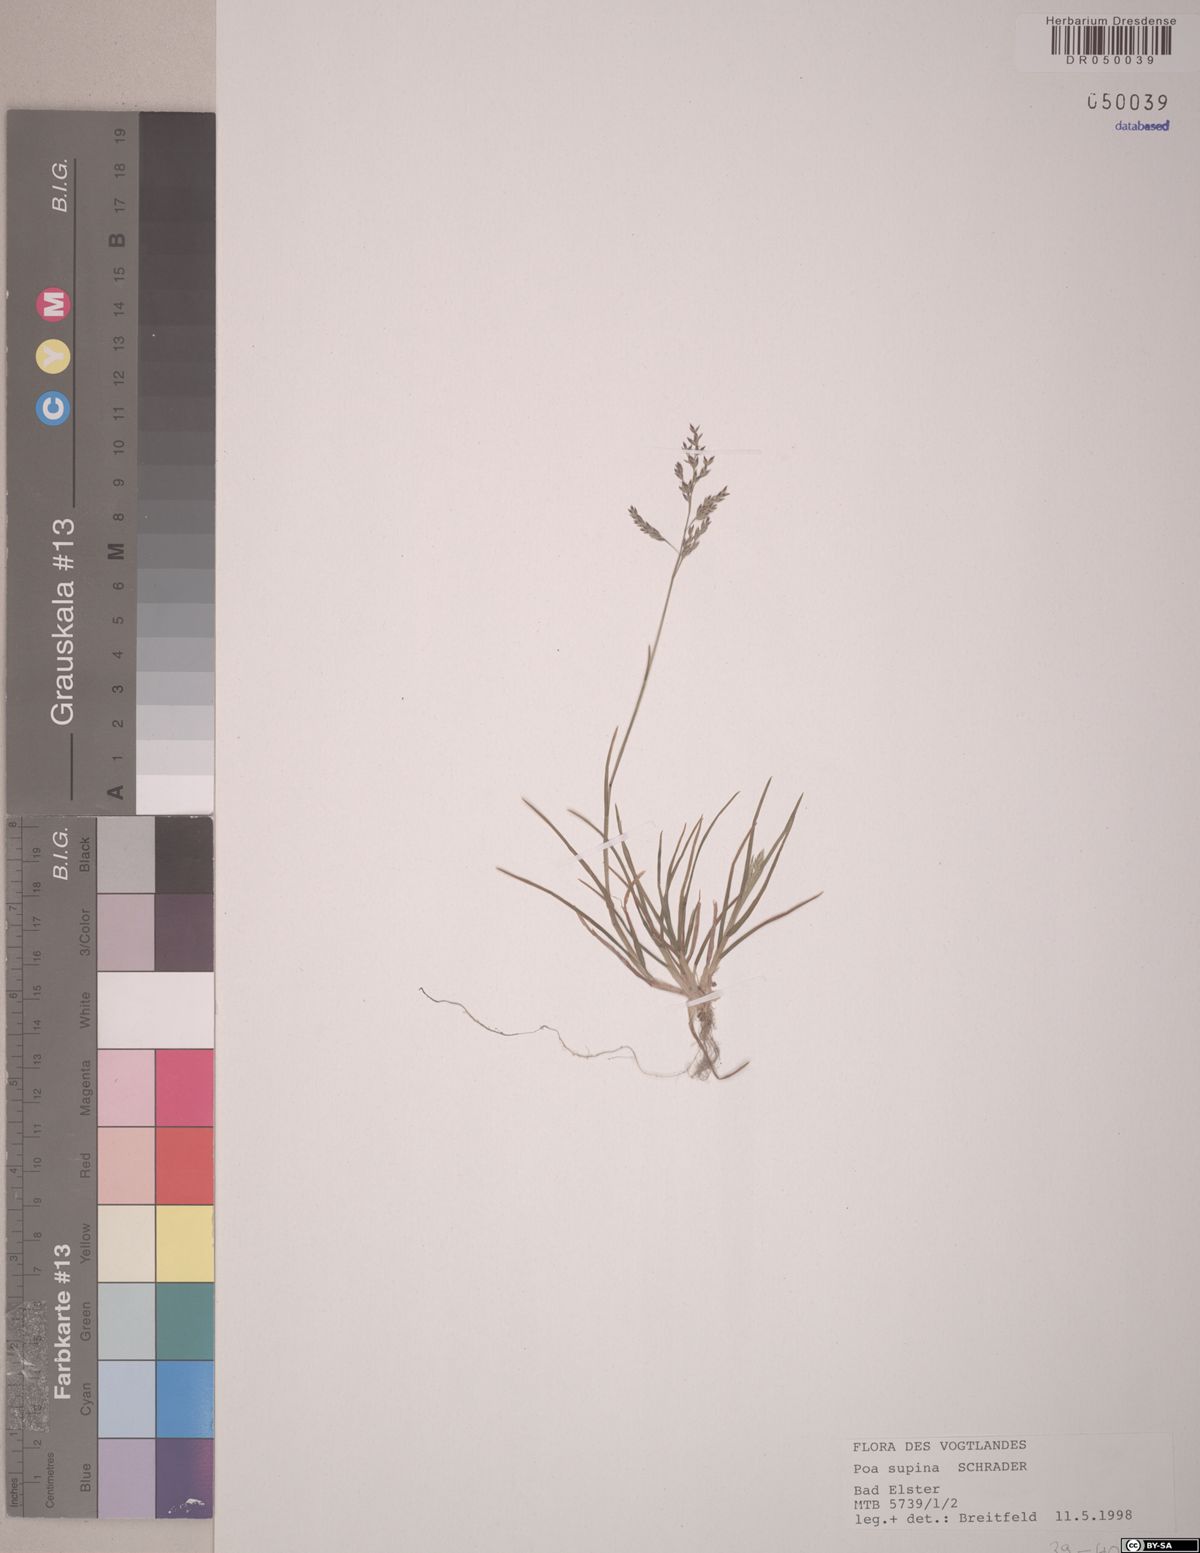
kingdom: Plantae
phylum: Tracheophyta
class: Liliopsida
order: Poales
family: Poaceae
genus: Poa
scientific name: Poa supina
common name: Supina bluegrass
